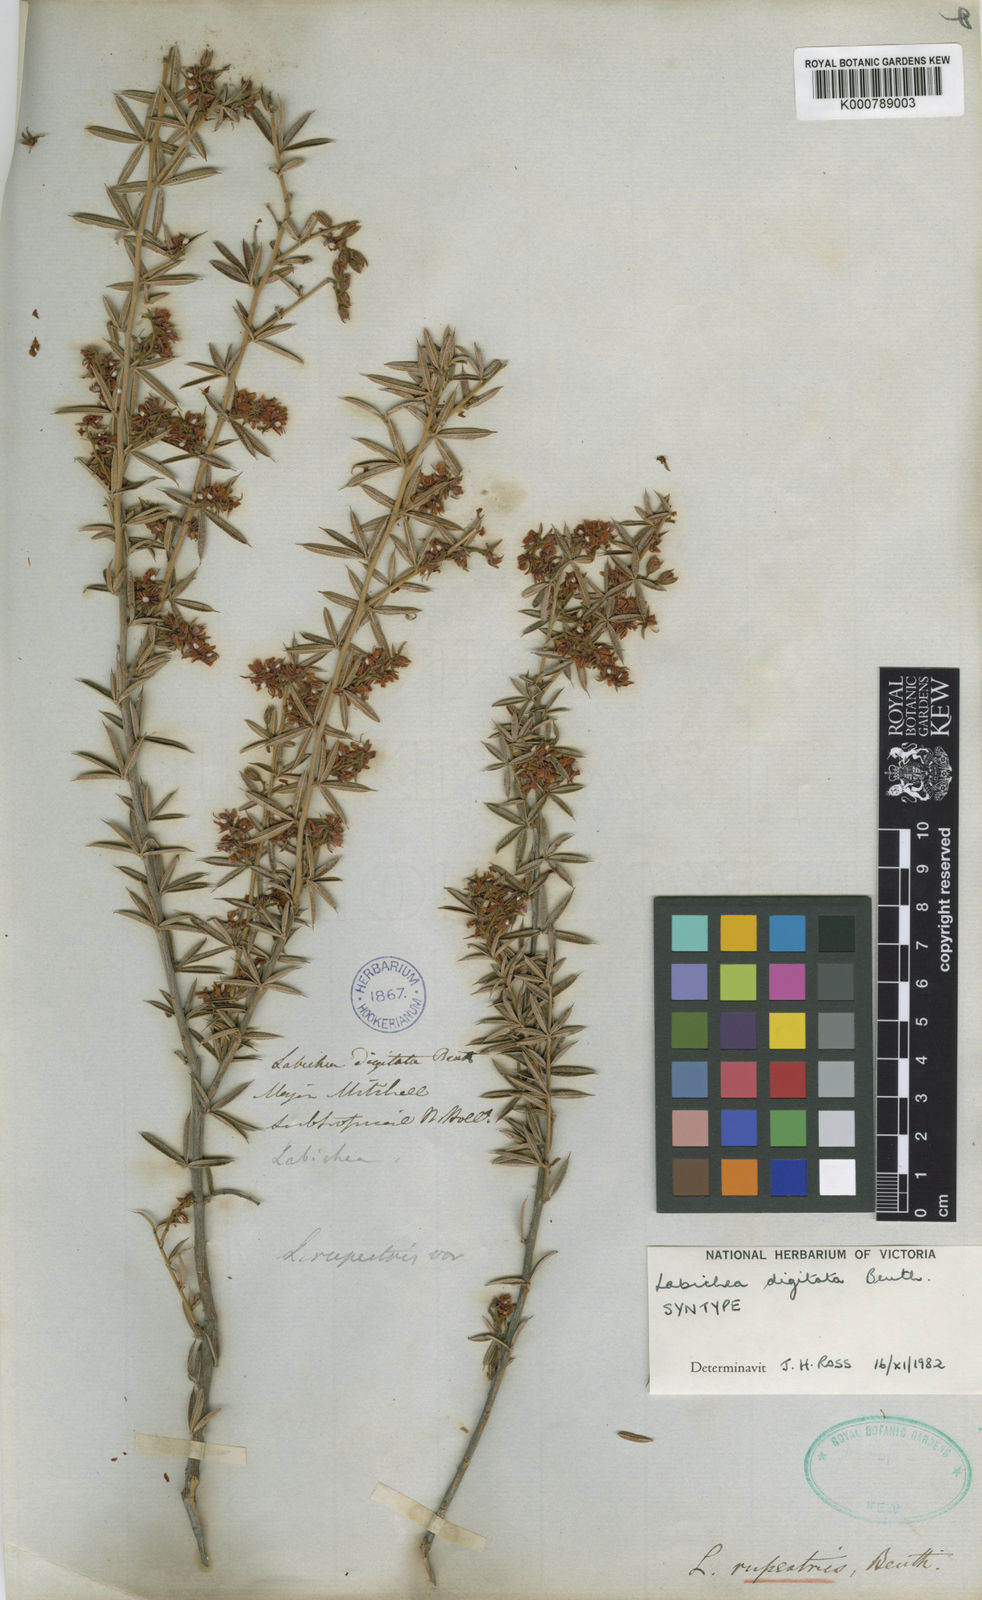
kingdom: Plantae
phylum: Tracheophyta
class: Magnoliopsida
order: Fabales
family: Fabaceae
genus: Labichea
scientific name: Labichea digitata
